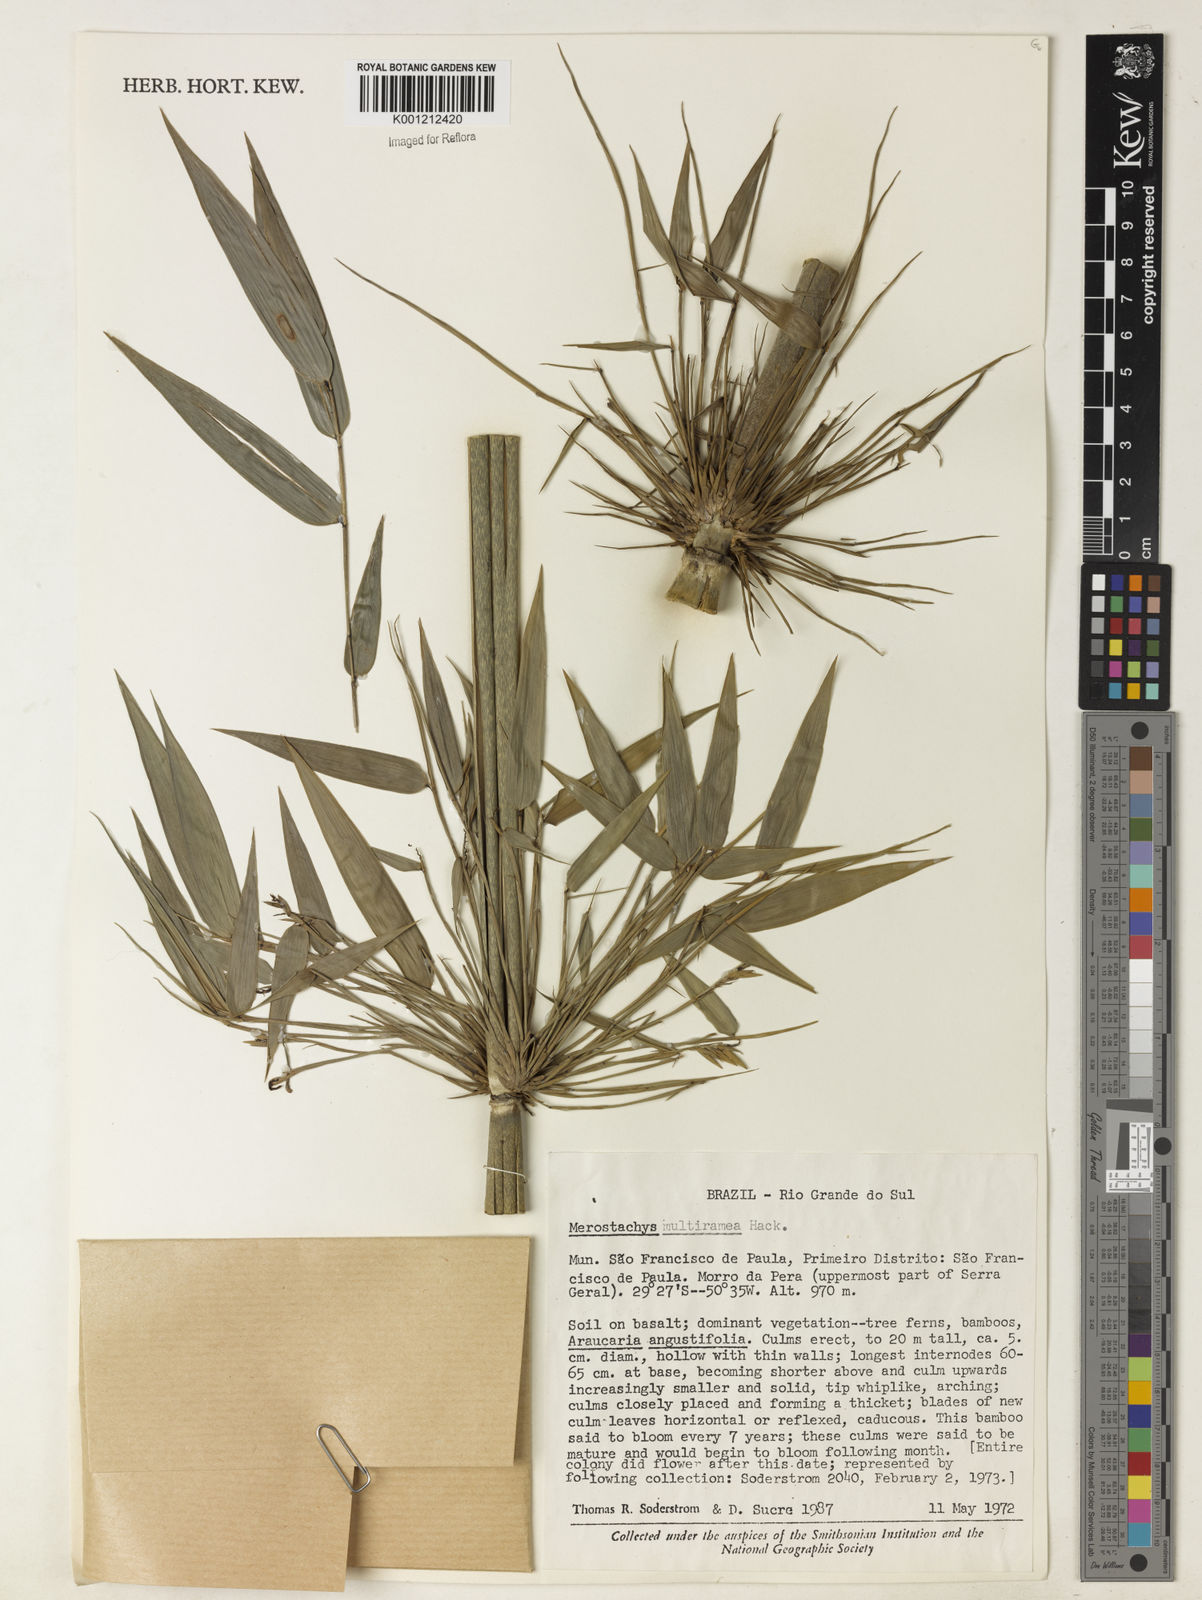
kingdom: Plantae
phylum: Tracheophyta
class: Liliopsida
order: Poales
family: Poaceae
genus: Merostachys
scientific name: Merostachys multiramea
